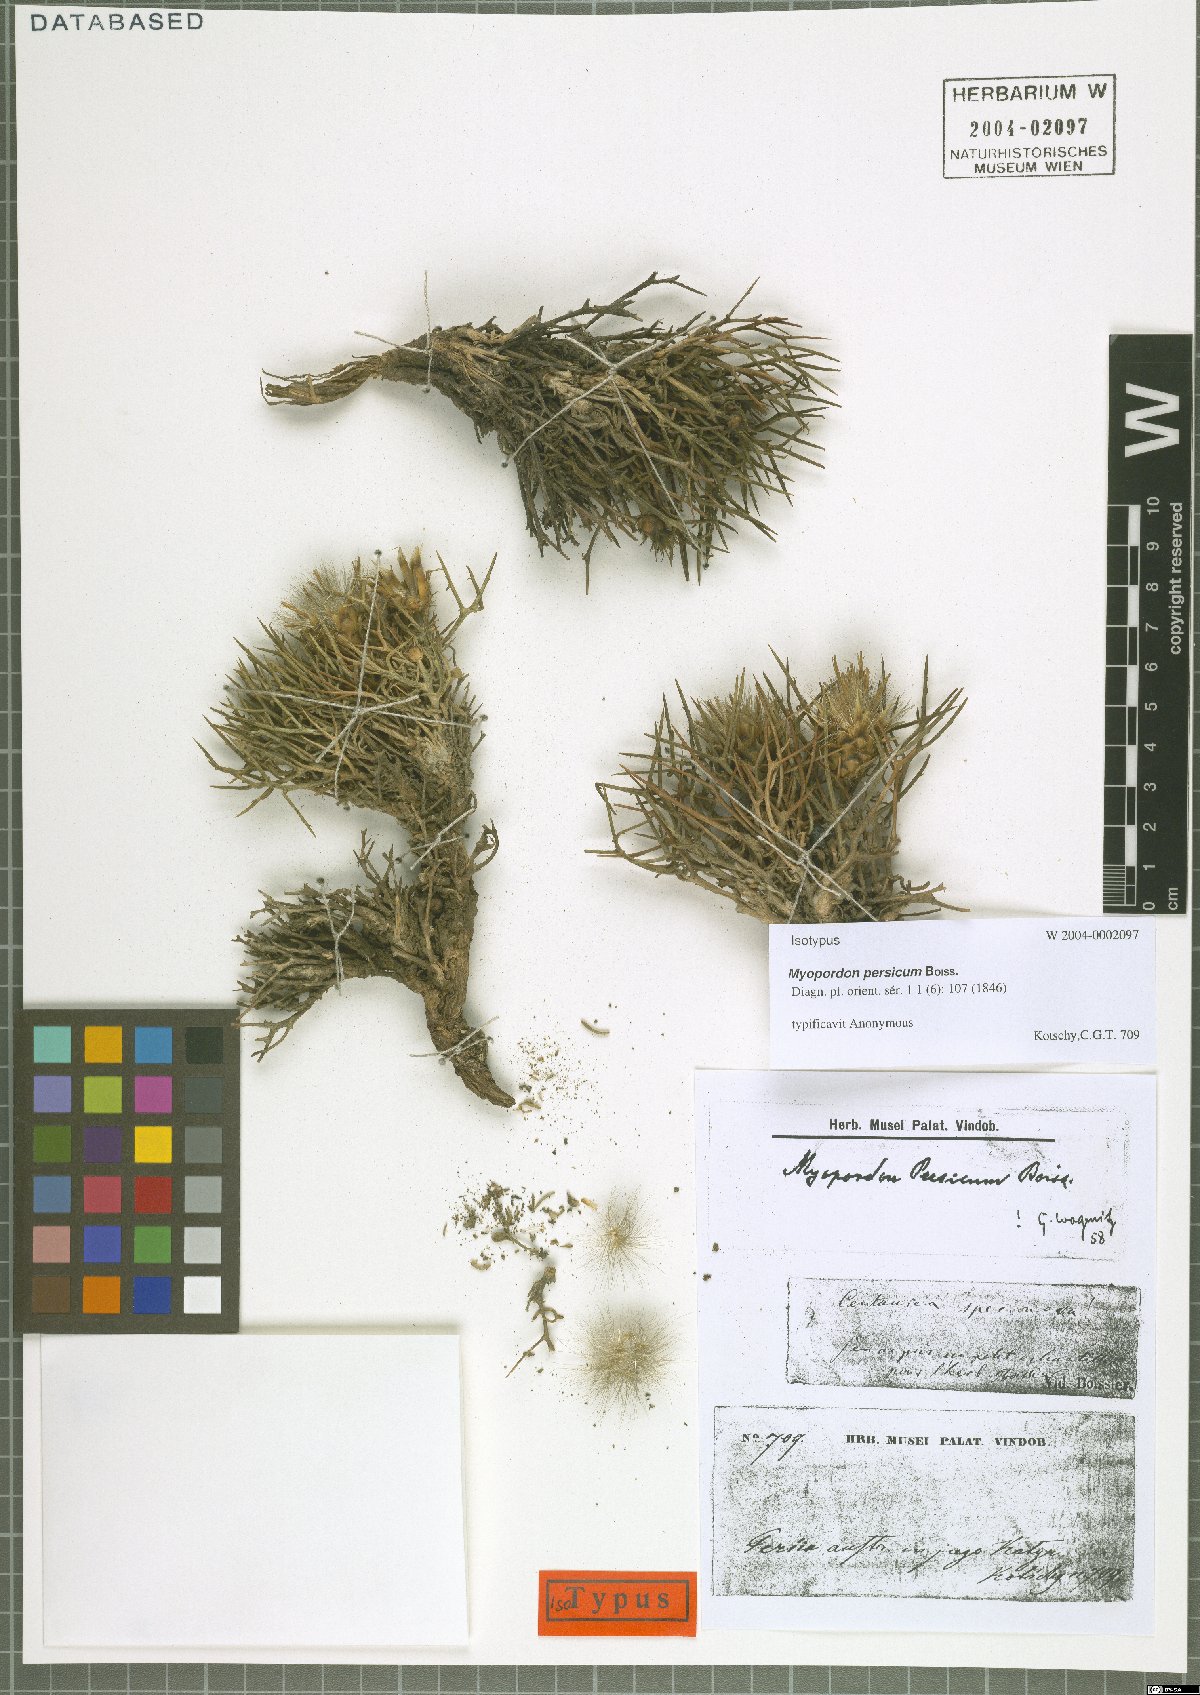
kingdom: Plantae
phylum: Tracheophyta
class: Magnoliopsida
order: Asterales
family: Asteraceae
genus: Myopordon
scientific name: Myopordon persicum
